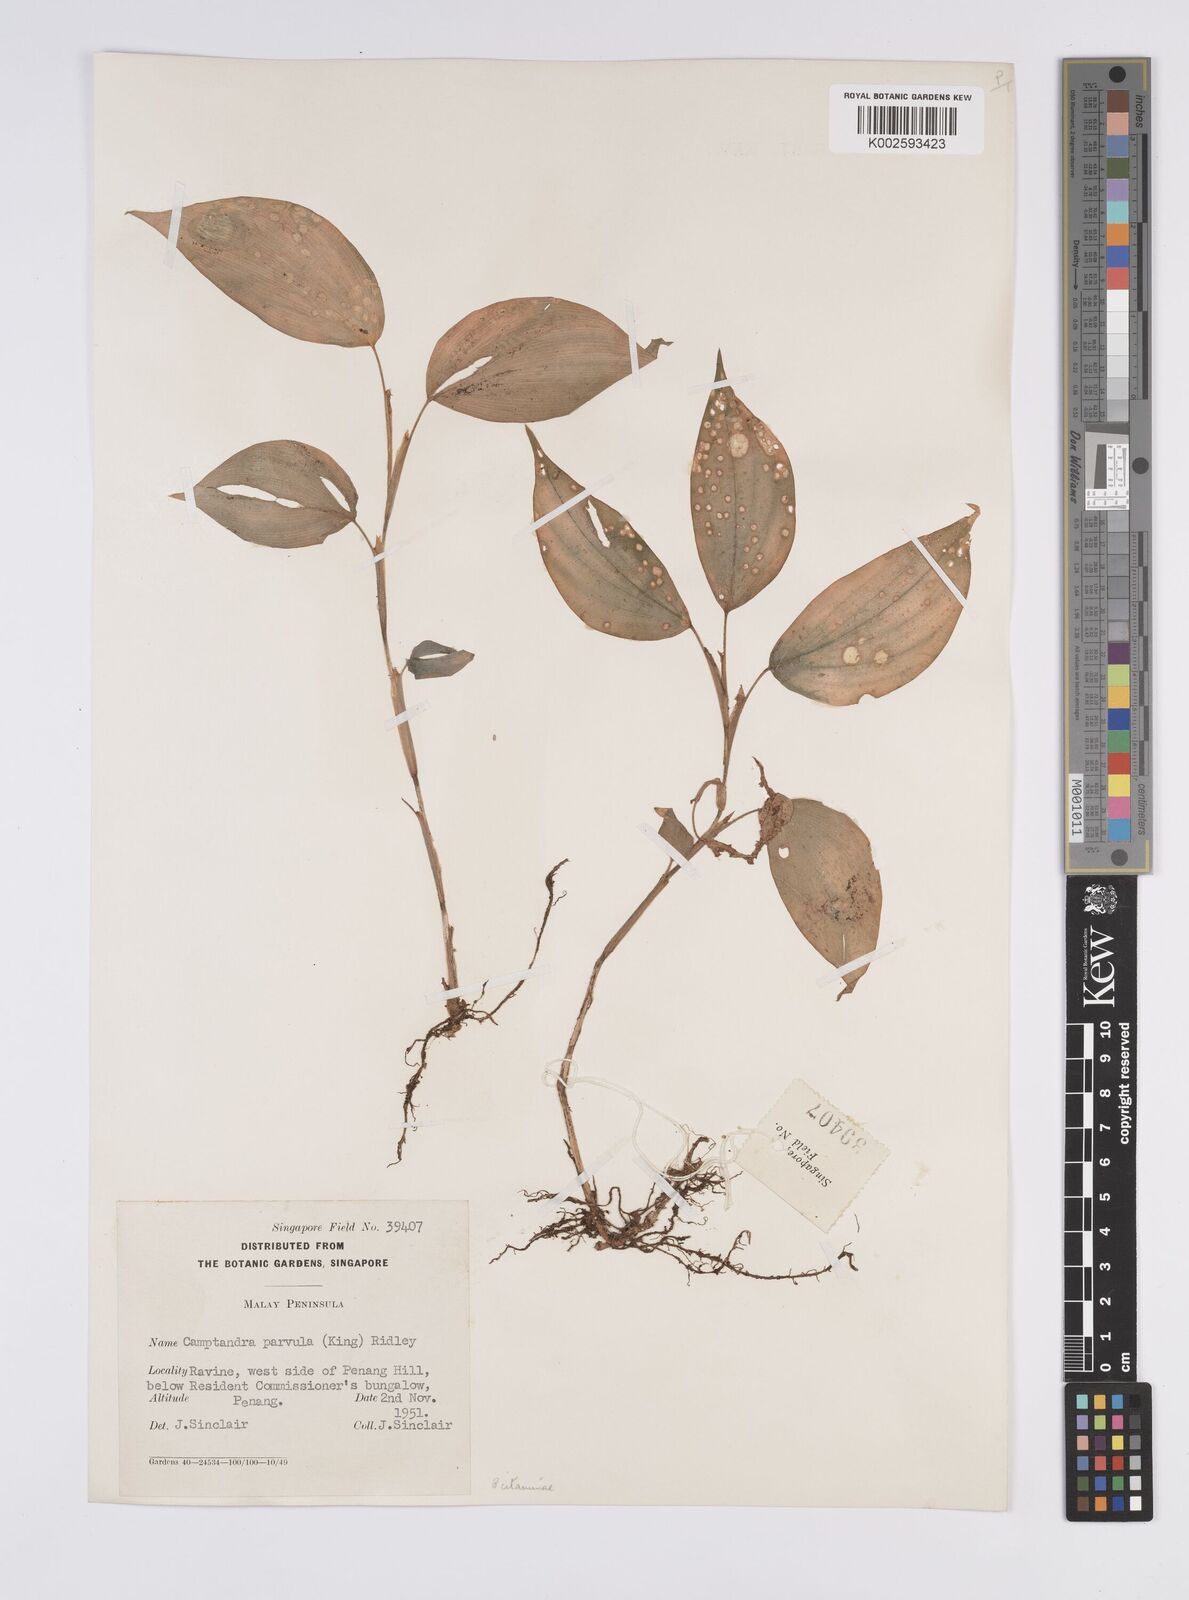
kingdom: Plantae
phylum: Tracheophyta
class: Liliopsida
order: Zingiberales
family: Zingiberaceae
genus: Camptandra
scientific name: Camptandra parvula
